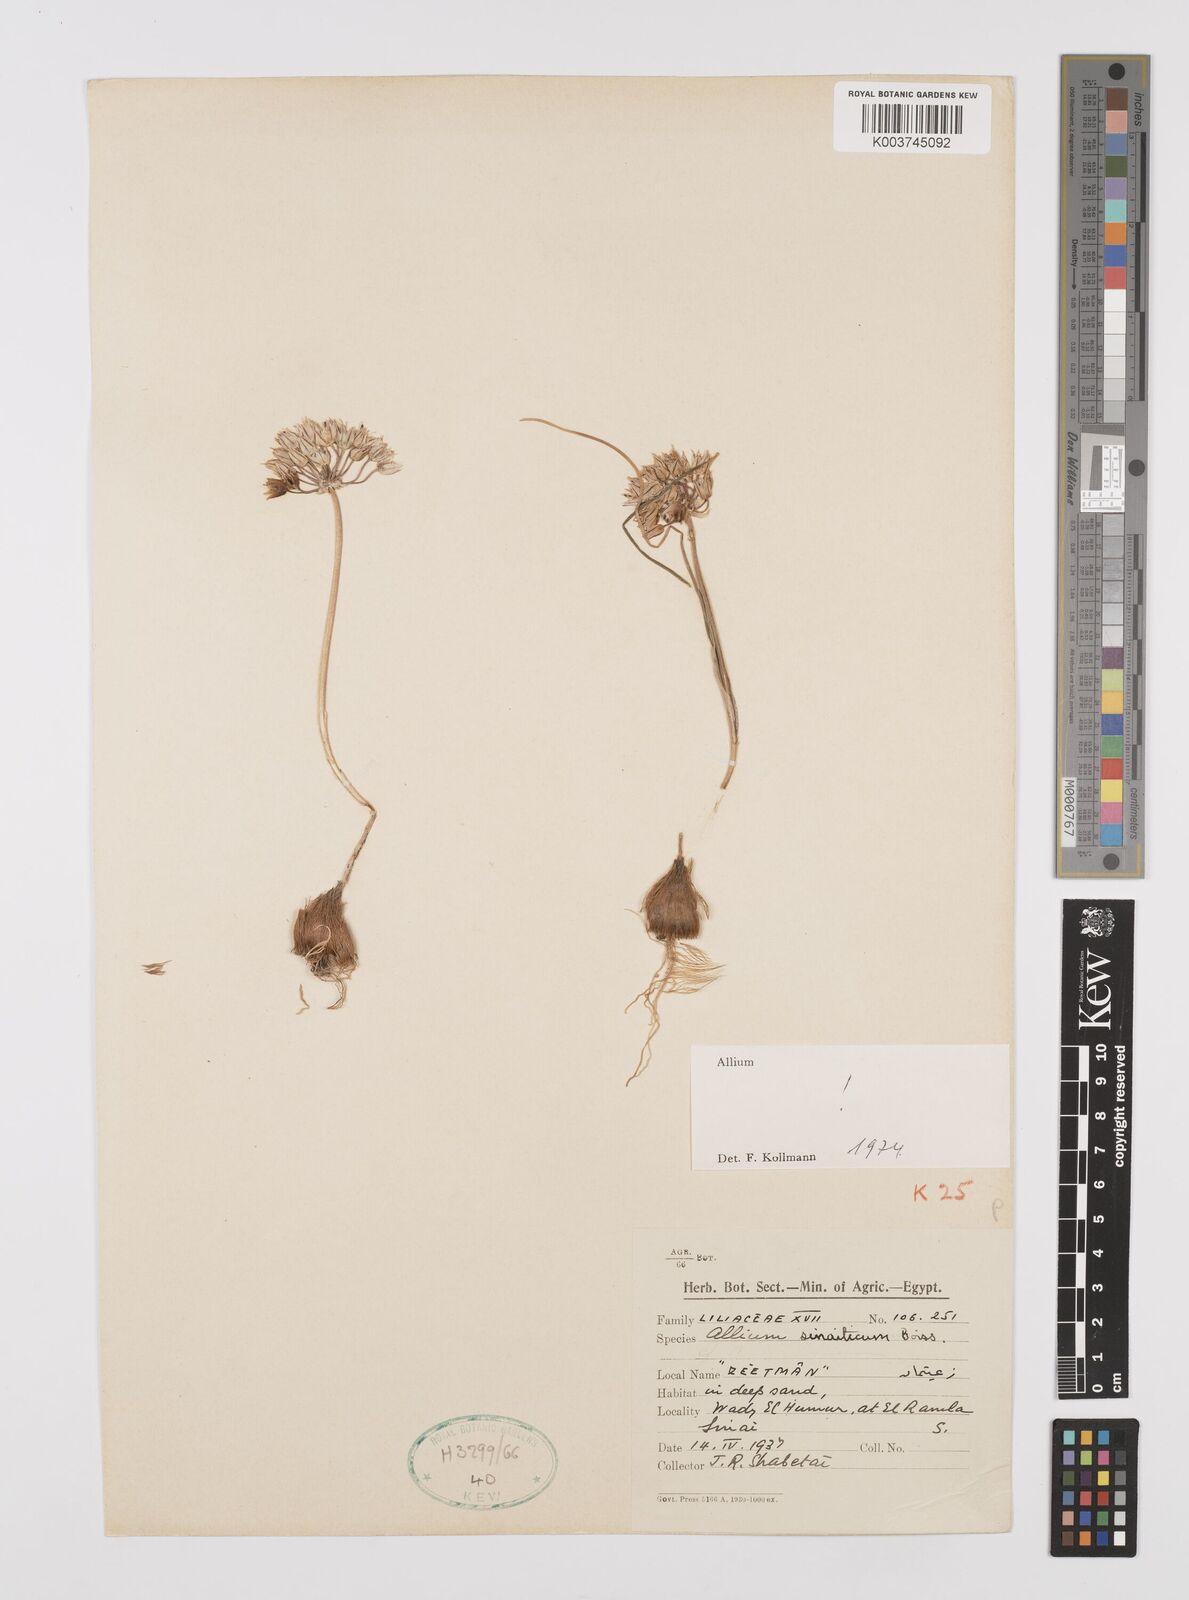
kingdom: Plantae
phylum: Tracheophyta
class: Liliopsida
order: Asparagales
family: Amaryllidaceae
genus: Allium
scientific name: Allium sinaiticum
